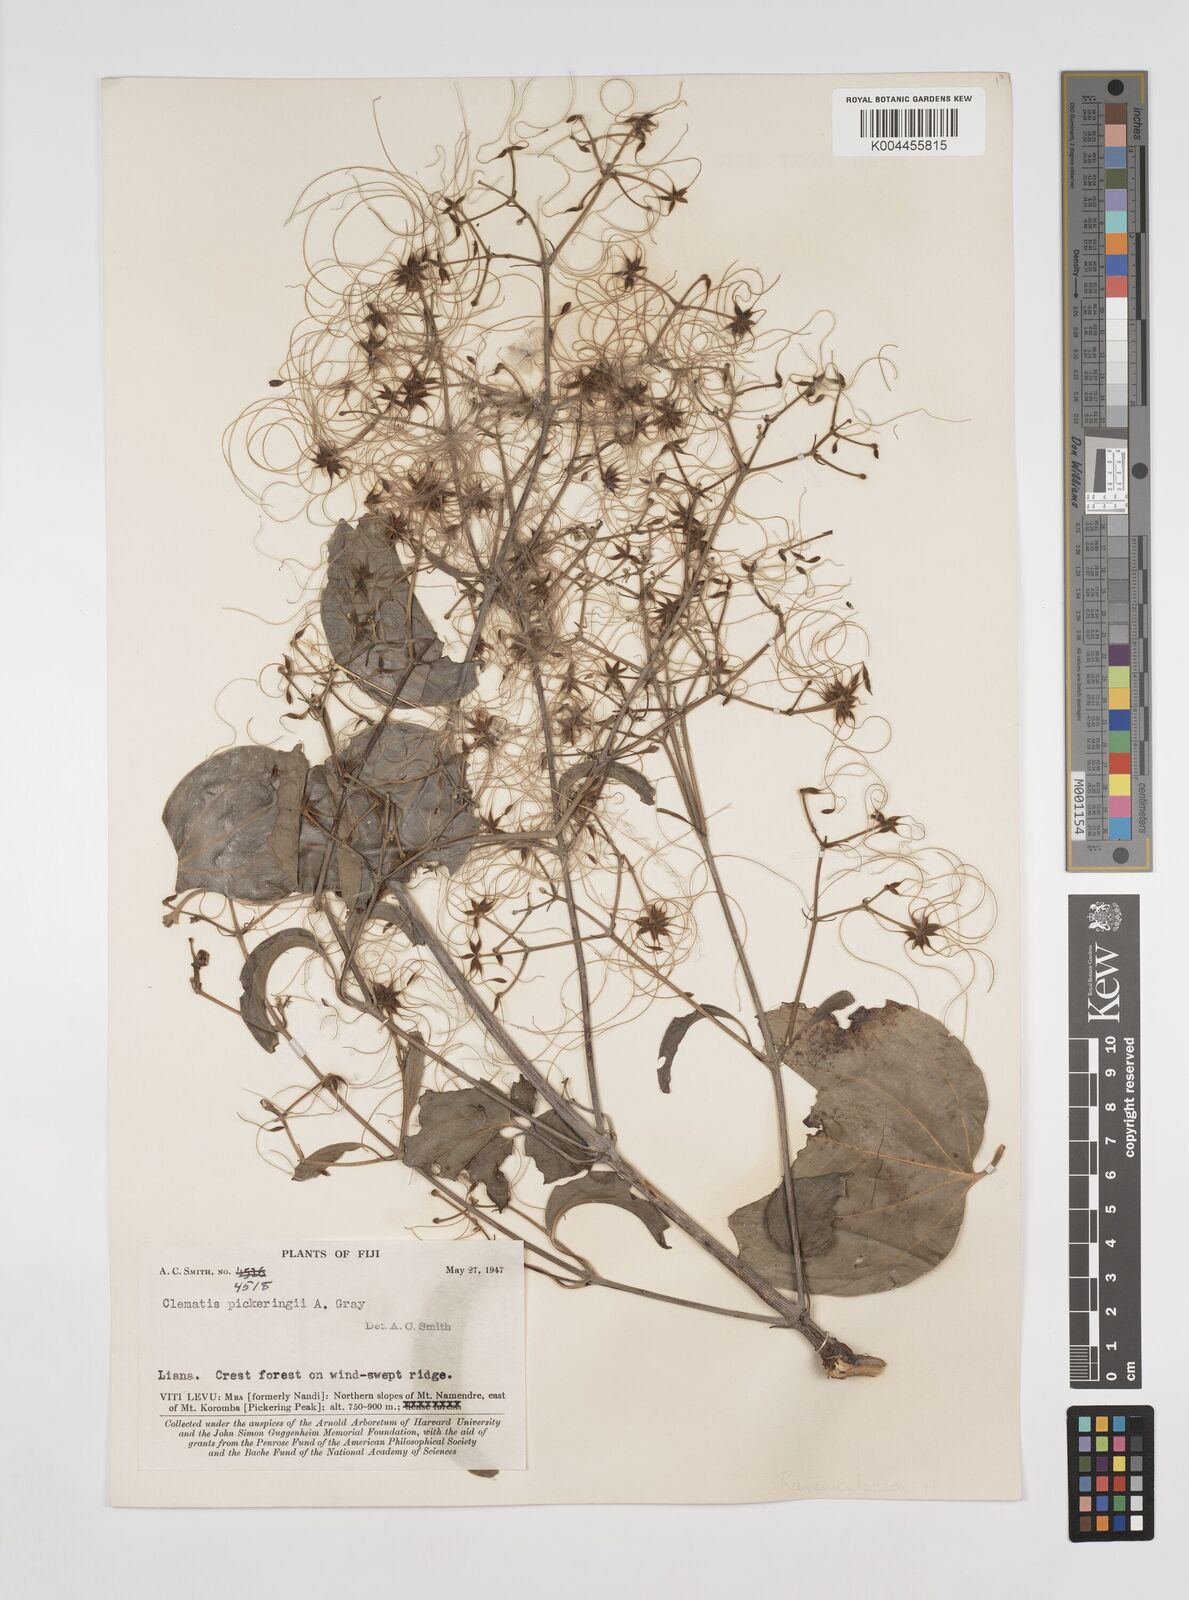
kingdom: Plantae
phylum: Tracheophyta
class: Magnoliopsida
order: Ranunculales
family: Ranunculaceae
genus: Clematis
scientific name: Clematis pickeringii
